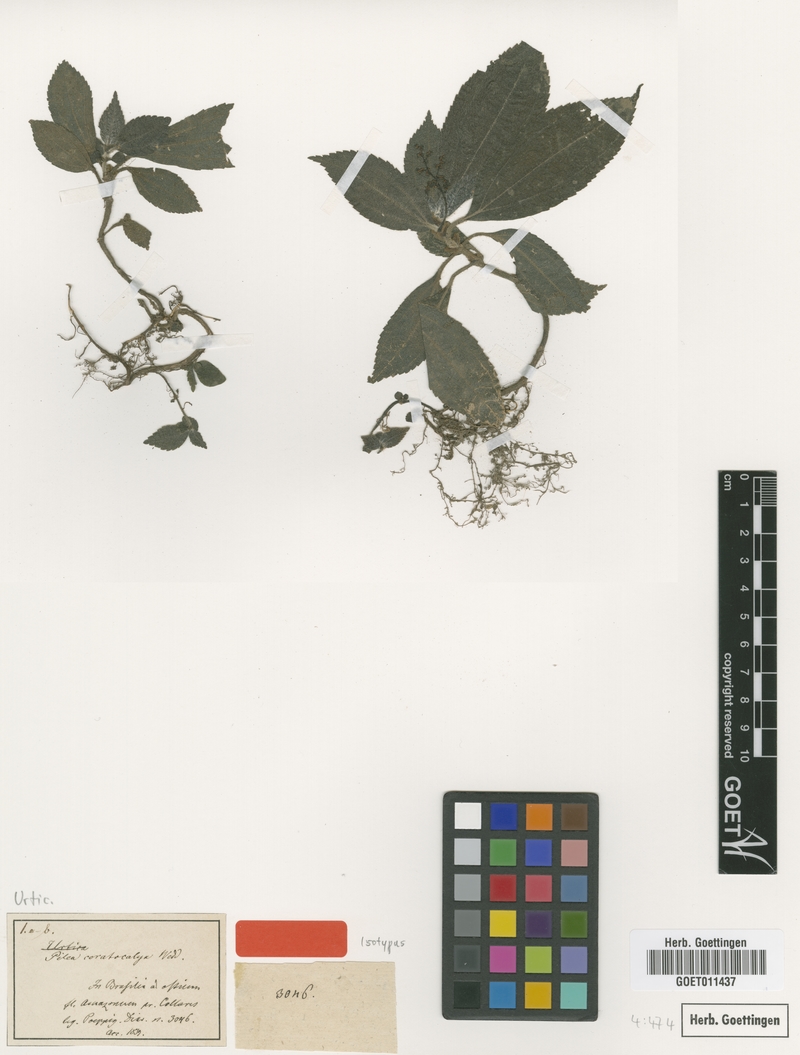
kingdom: Plantae
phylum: Tracheophyta
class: Magnoliopsida
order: Rosales
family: Urticaceae
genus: Pilea
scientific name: Pilea ceratocalyx
